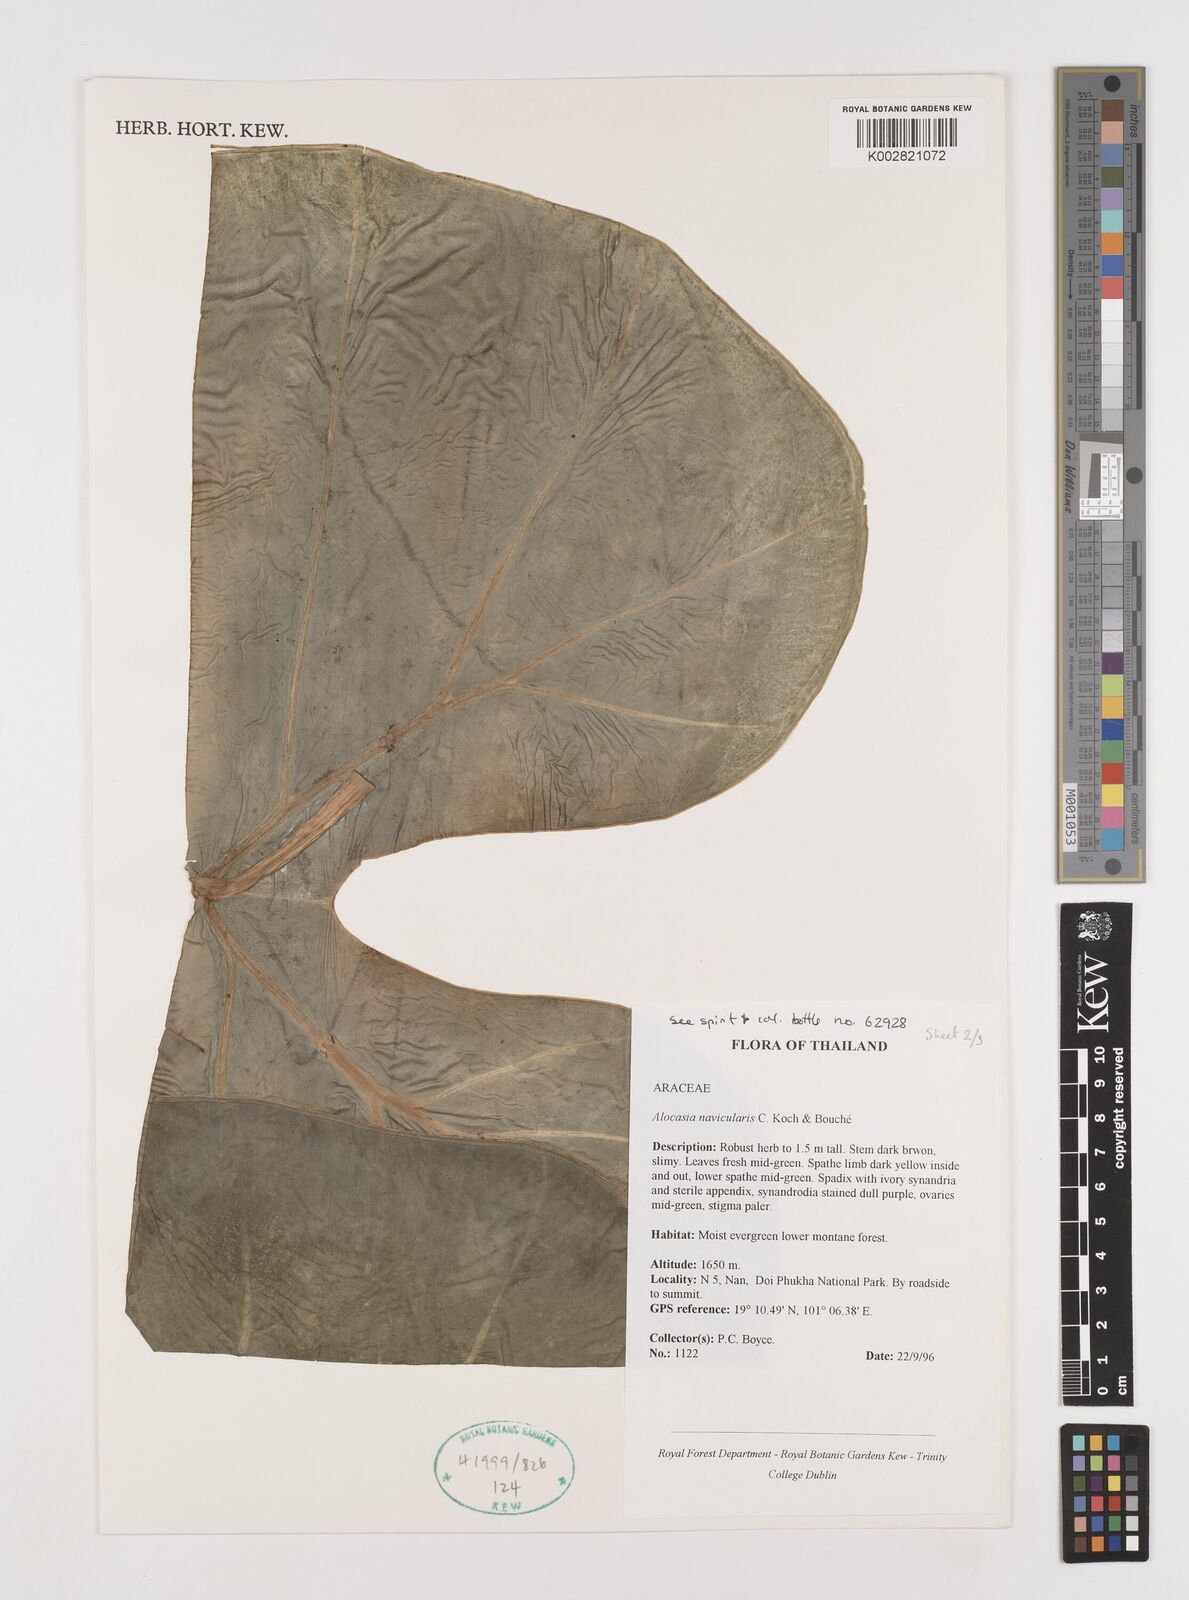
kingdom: Plantae
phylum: Tracheophyta
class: Liliopsida
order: Alismatales
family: Araceae
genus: Alocasia
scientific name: Alocasia navicularis
